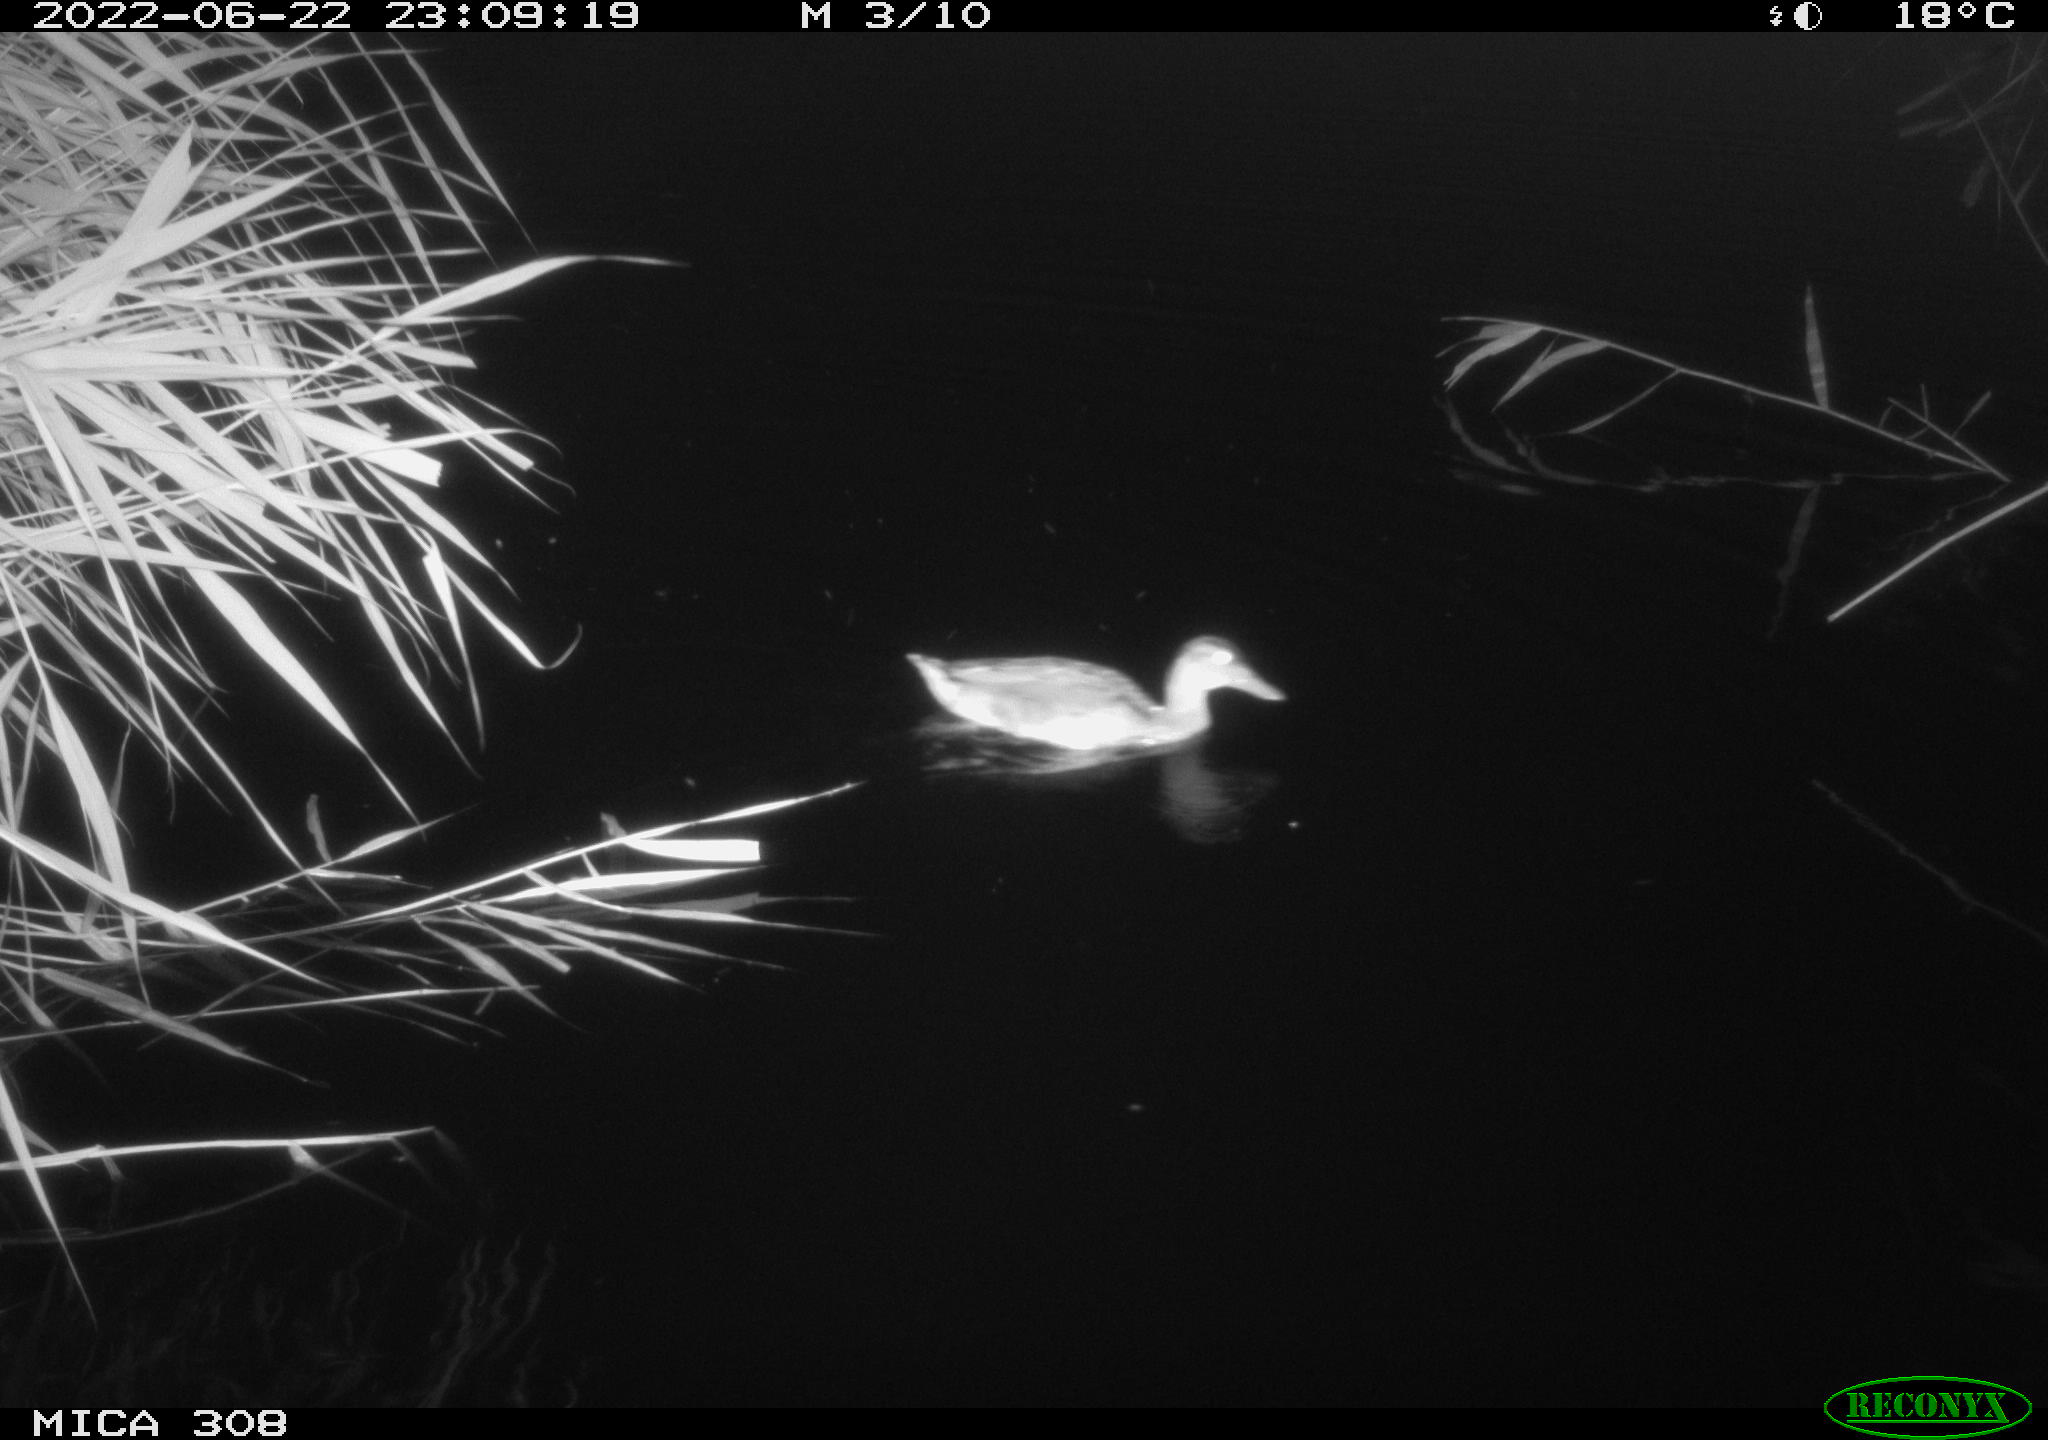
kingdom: Animalia
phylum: Chordata
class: Aves
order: Anseriformes
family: Anatidae
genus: Anas
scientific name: Anas platyrhynchos
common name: Mallard
